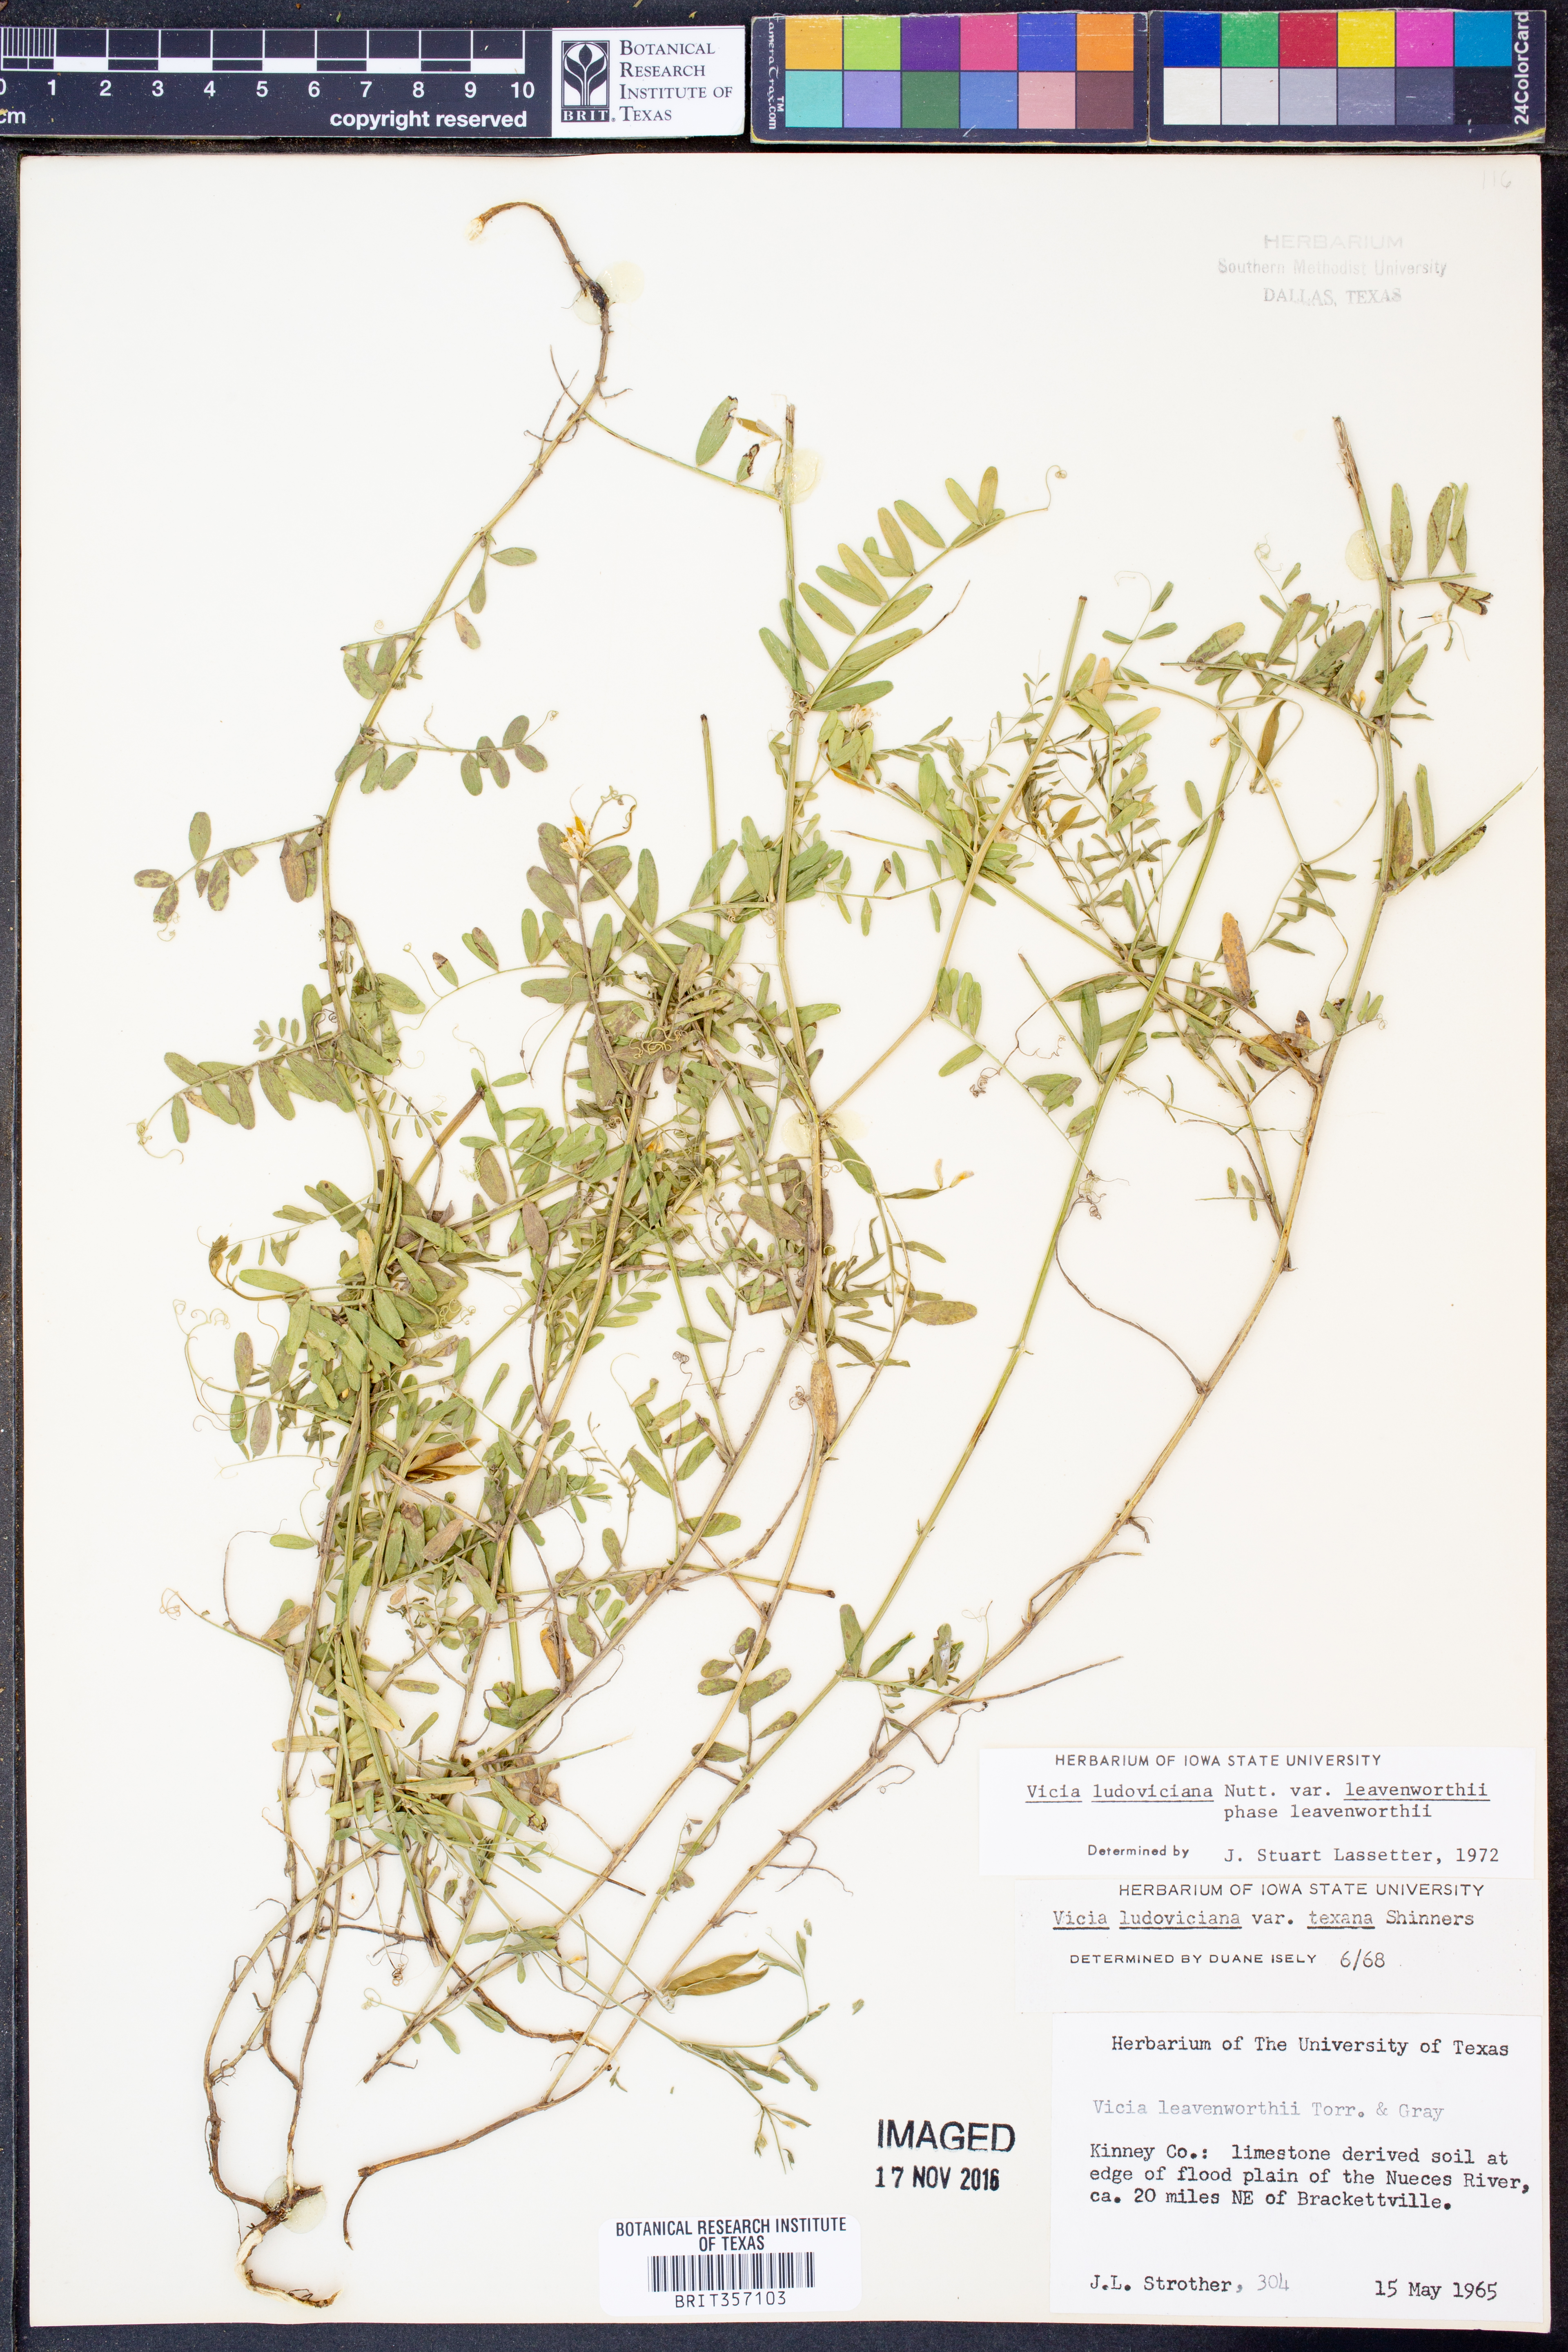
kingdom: Plantae
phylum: Tracheophyta
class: Magnoliopsida
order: Fabales
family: Fabaceae
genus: Vicia
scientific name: Vicia ludoviciana
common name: Louisiana vetch
